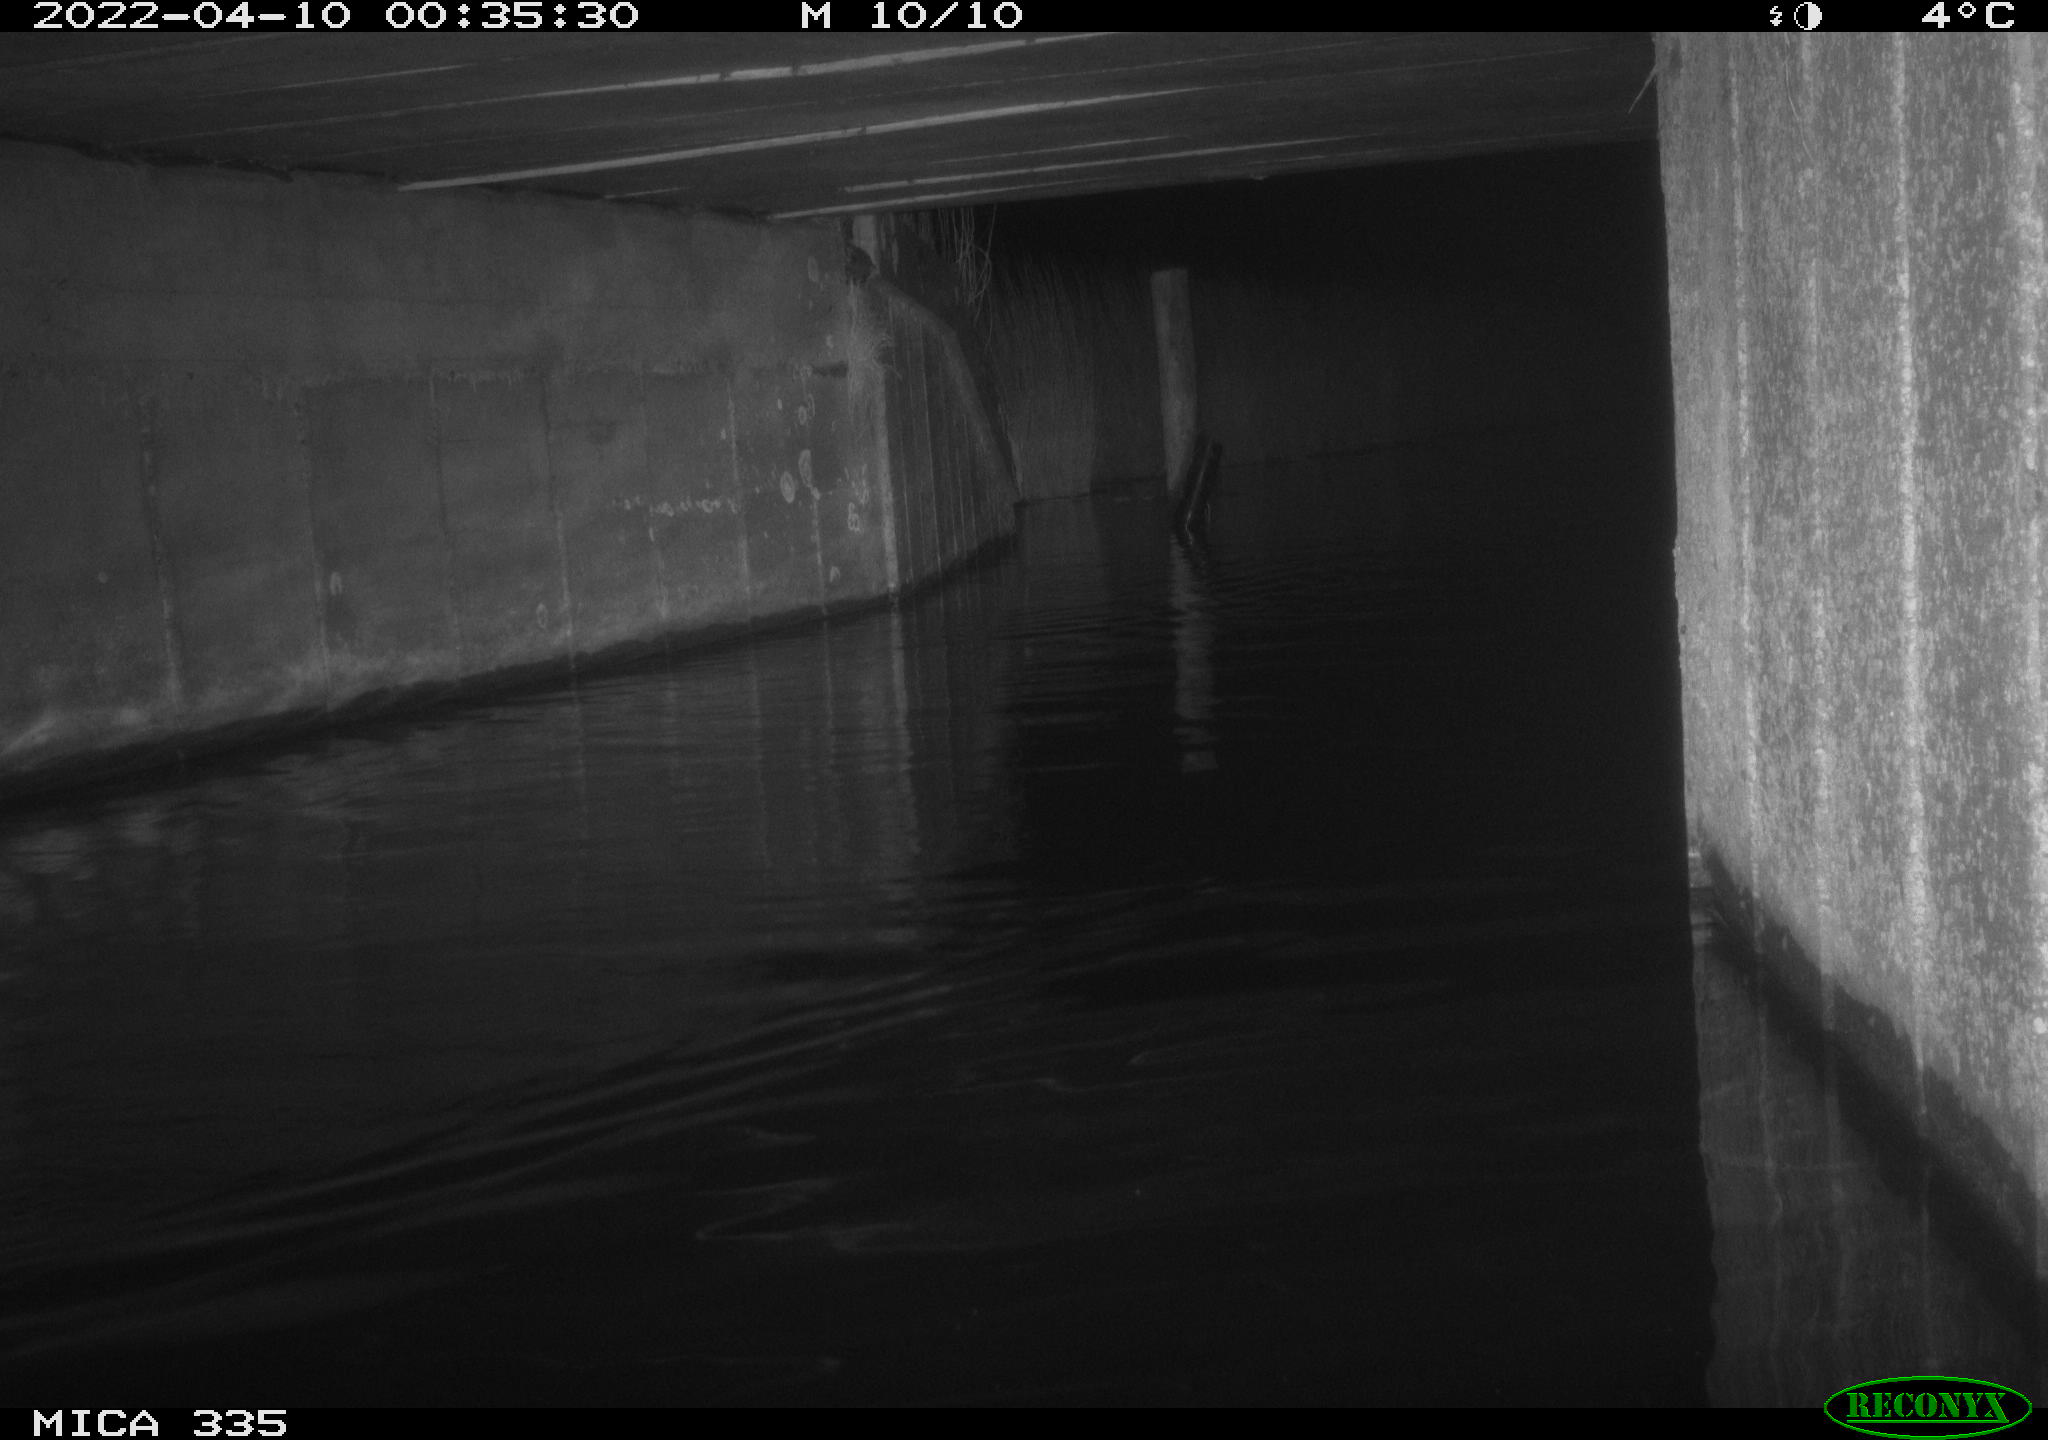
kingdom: Animalia
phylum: Chordata
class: Aves
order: Anseriformes
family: Anatidae
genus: Anas
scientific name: Anas platyrhynchos
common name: Mallard
